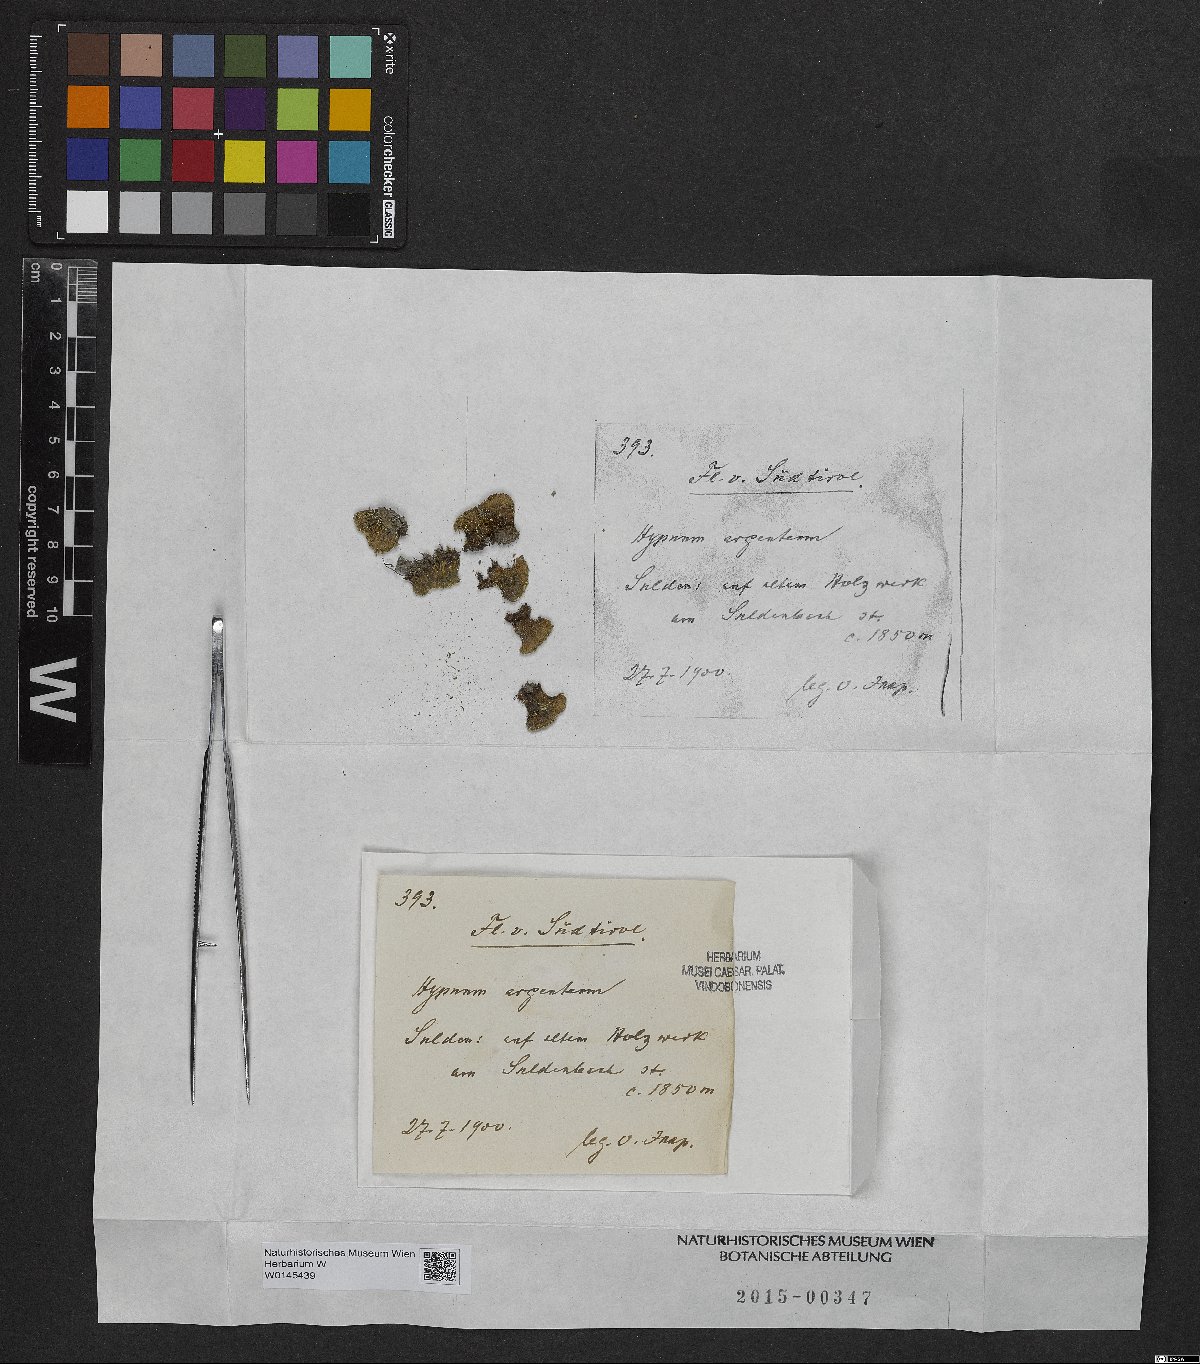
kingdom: Plantae
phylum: Bryophyta
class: Bryopsida
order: Bryales
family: Bryaceae
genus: Bryum
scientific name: Bryum argenteum
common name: Silver-moss
